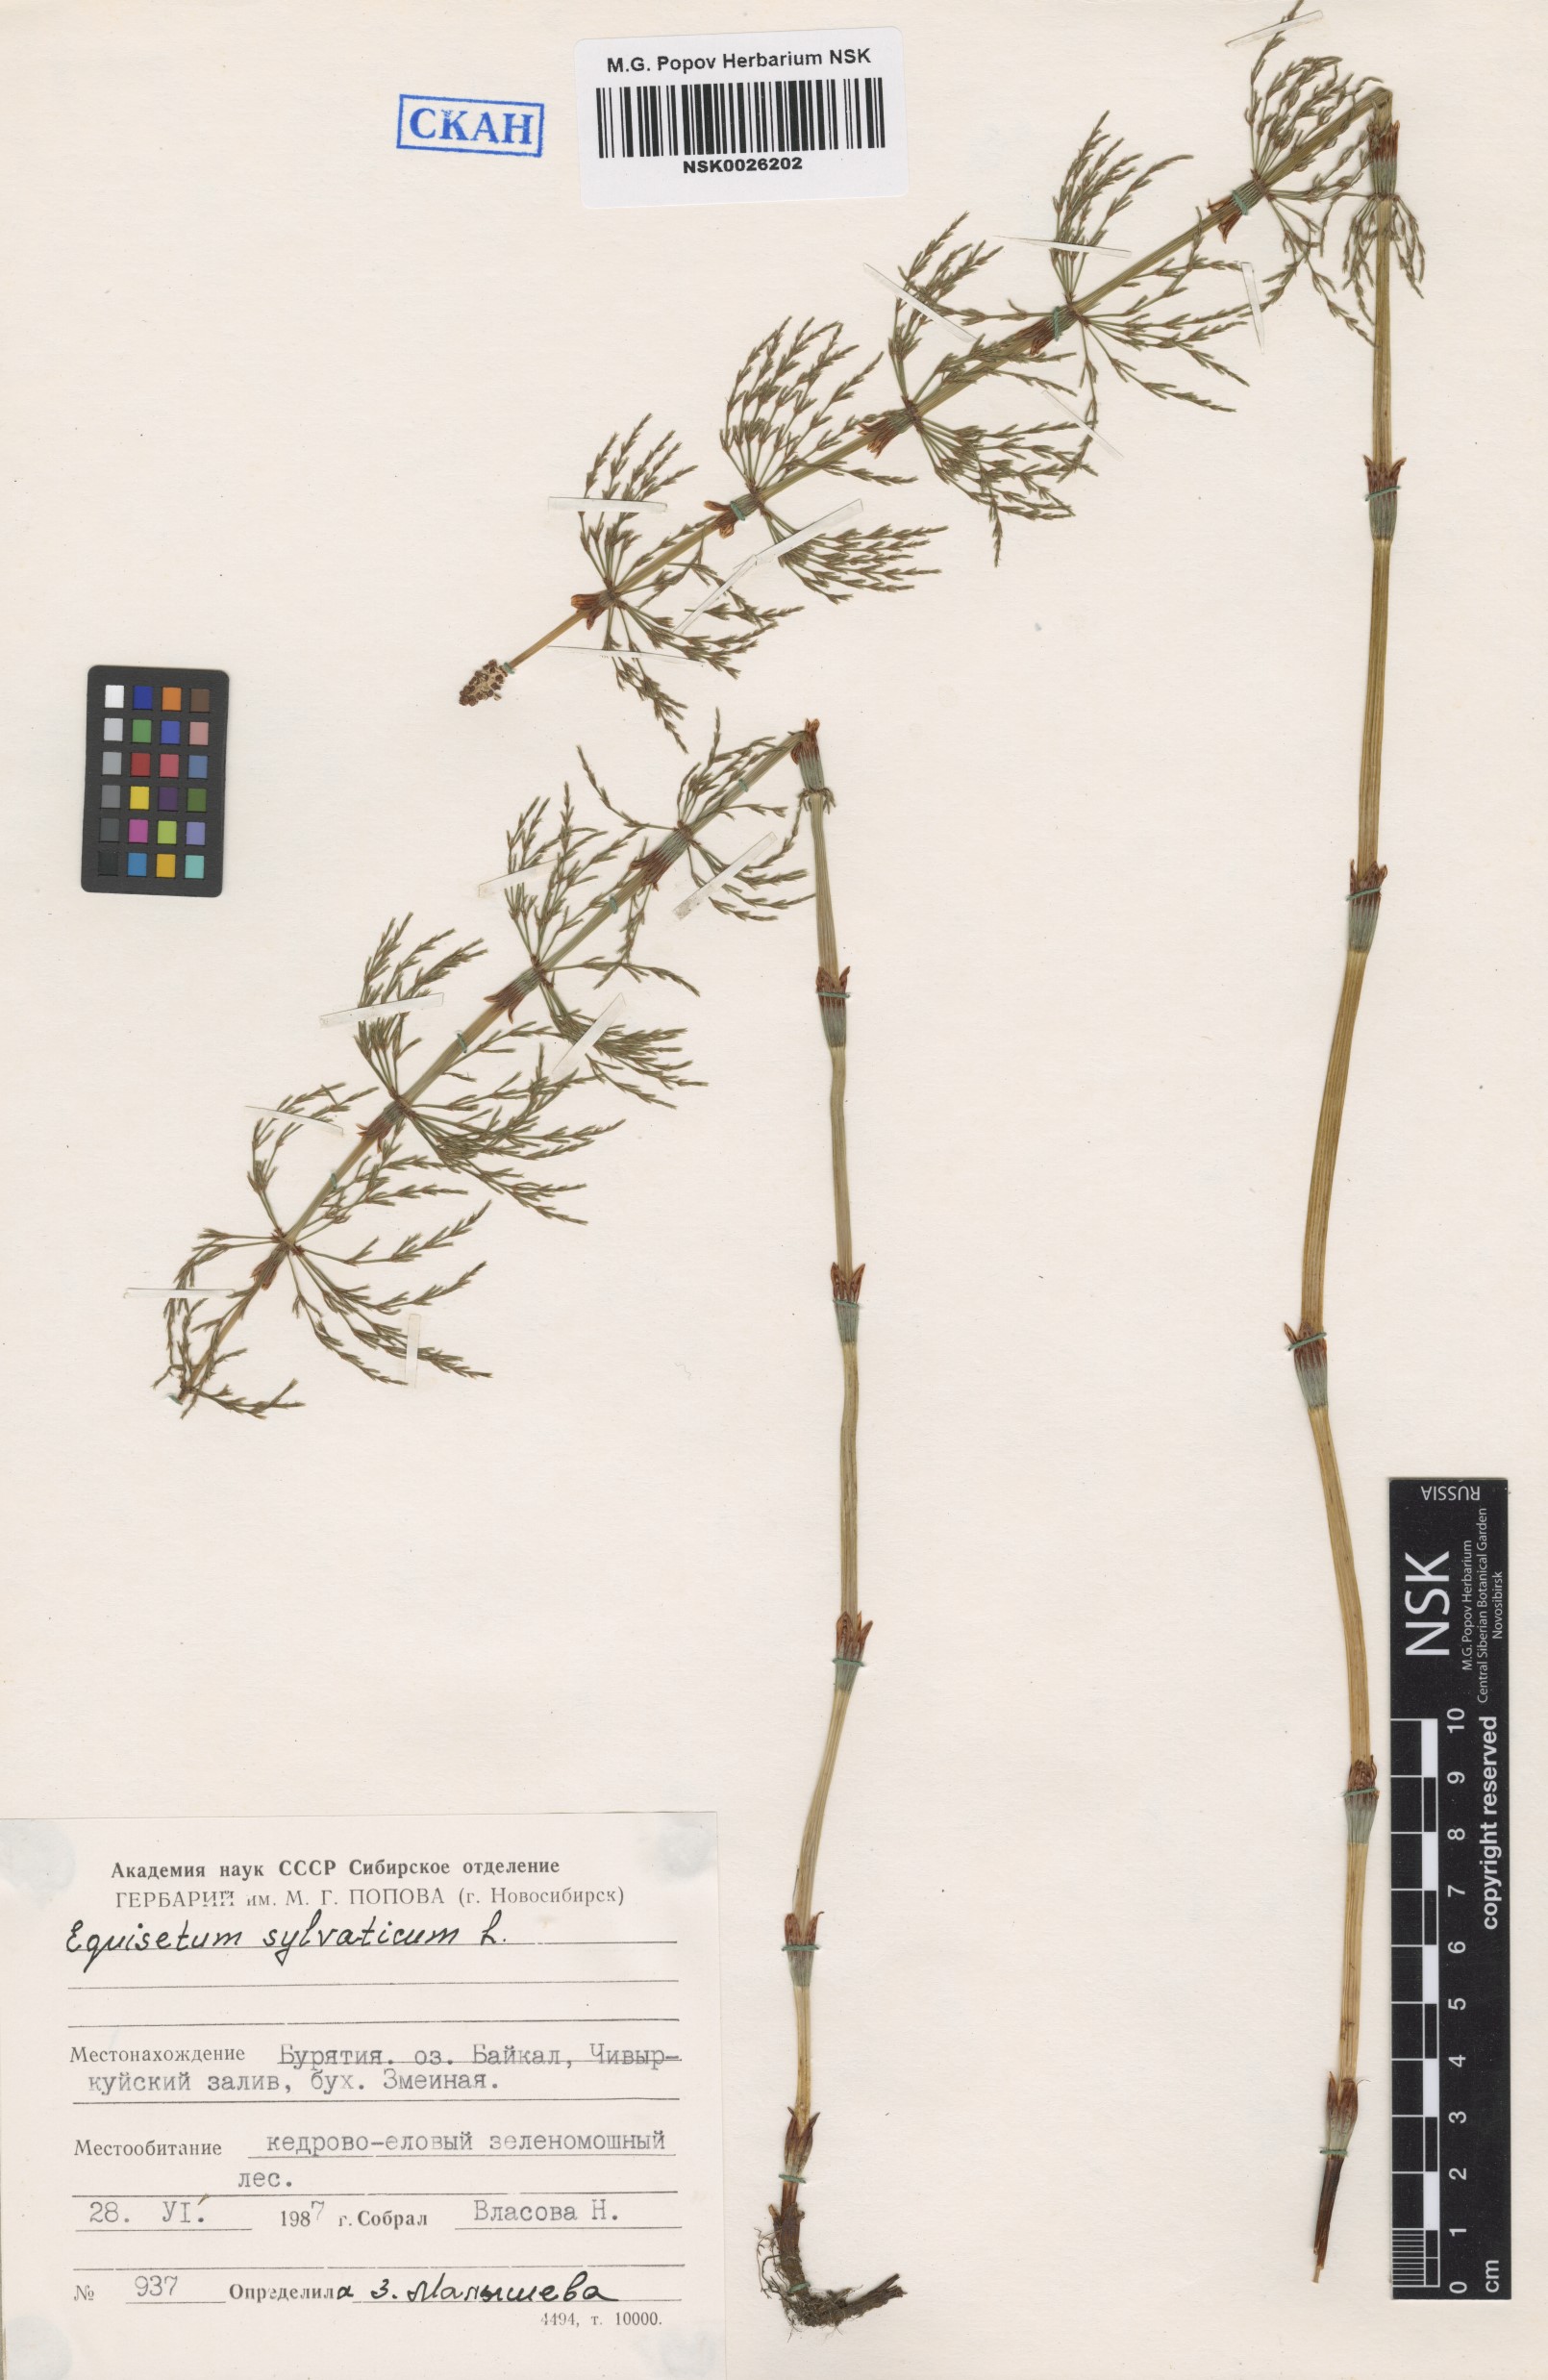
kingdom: Plantae
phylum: Tracheophyta
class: Polypodiopsida
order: Equisetales
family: Equisetaceae
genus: Equisetum
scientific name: Equisetum sylvaticum
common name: Wood horsetail
